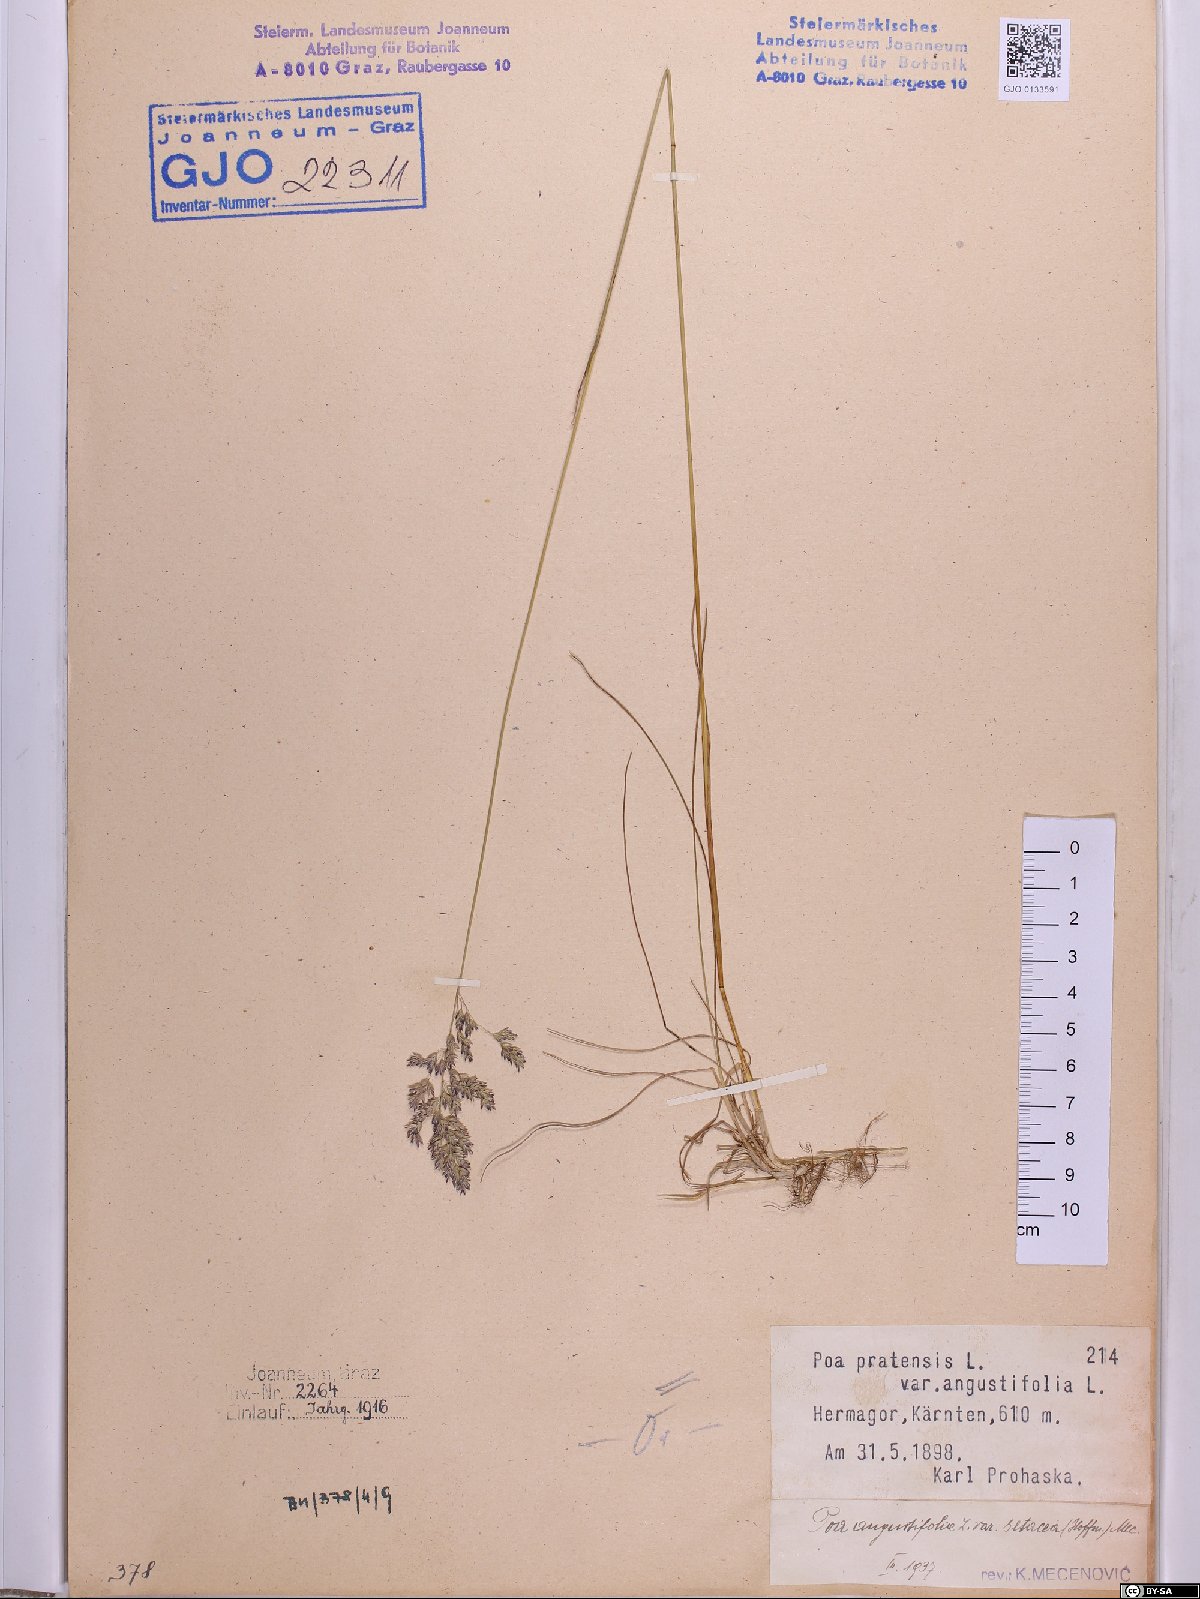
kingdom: Plantae
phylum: Tracheophyta
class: Liliopsida
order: Poales
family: Poaceae
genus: Poa
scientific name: Poa angustifolia
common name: Narrow-leaved meadow-grass
